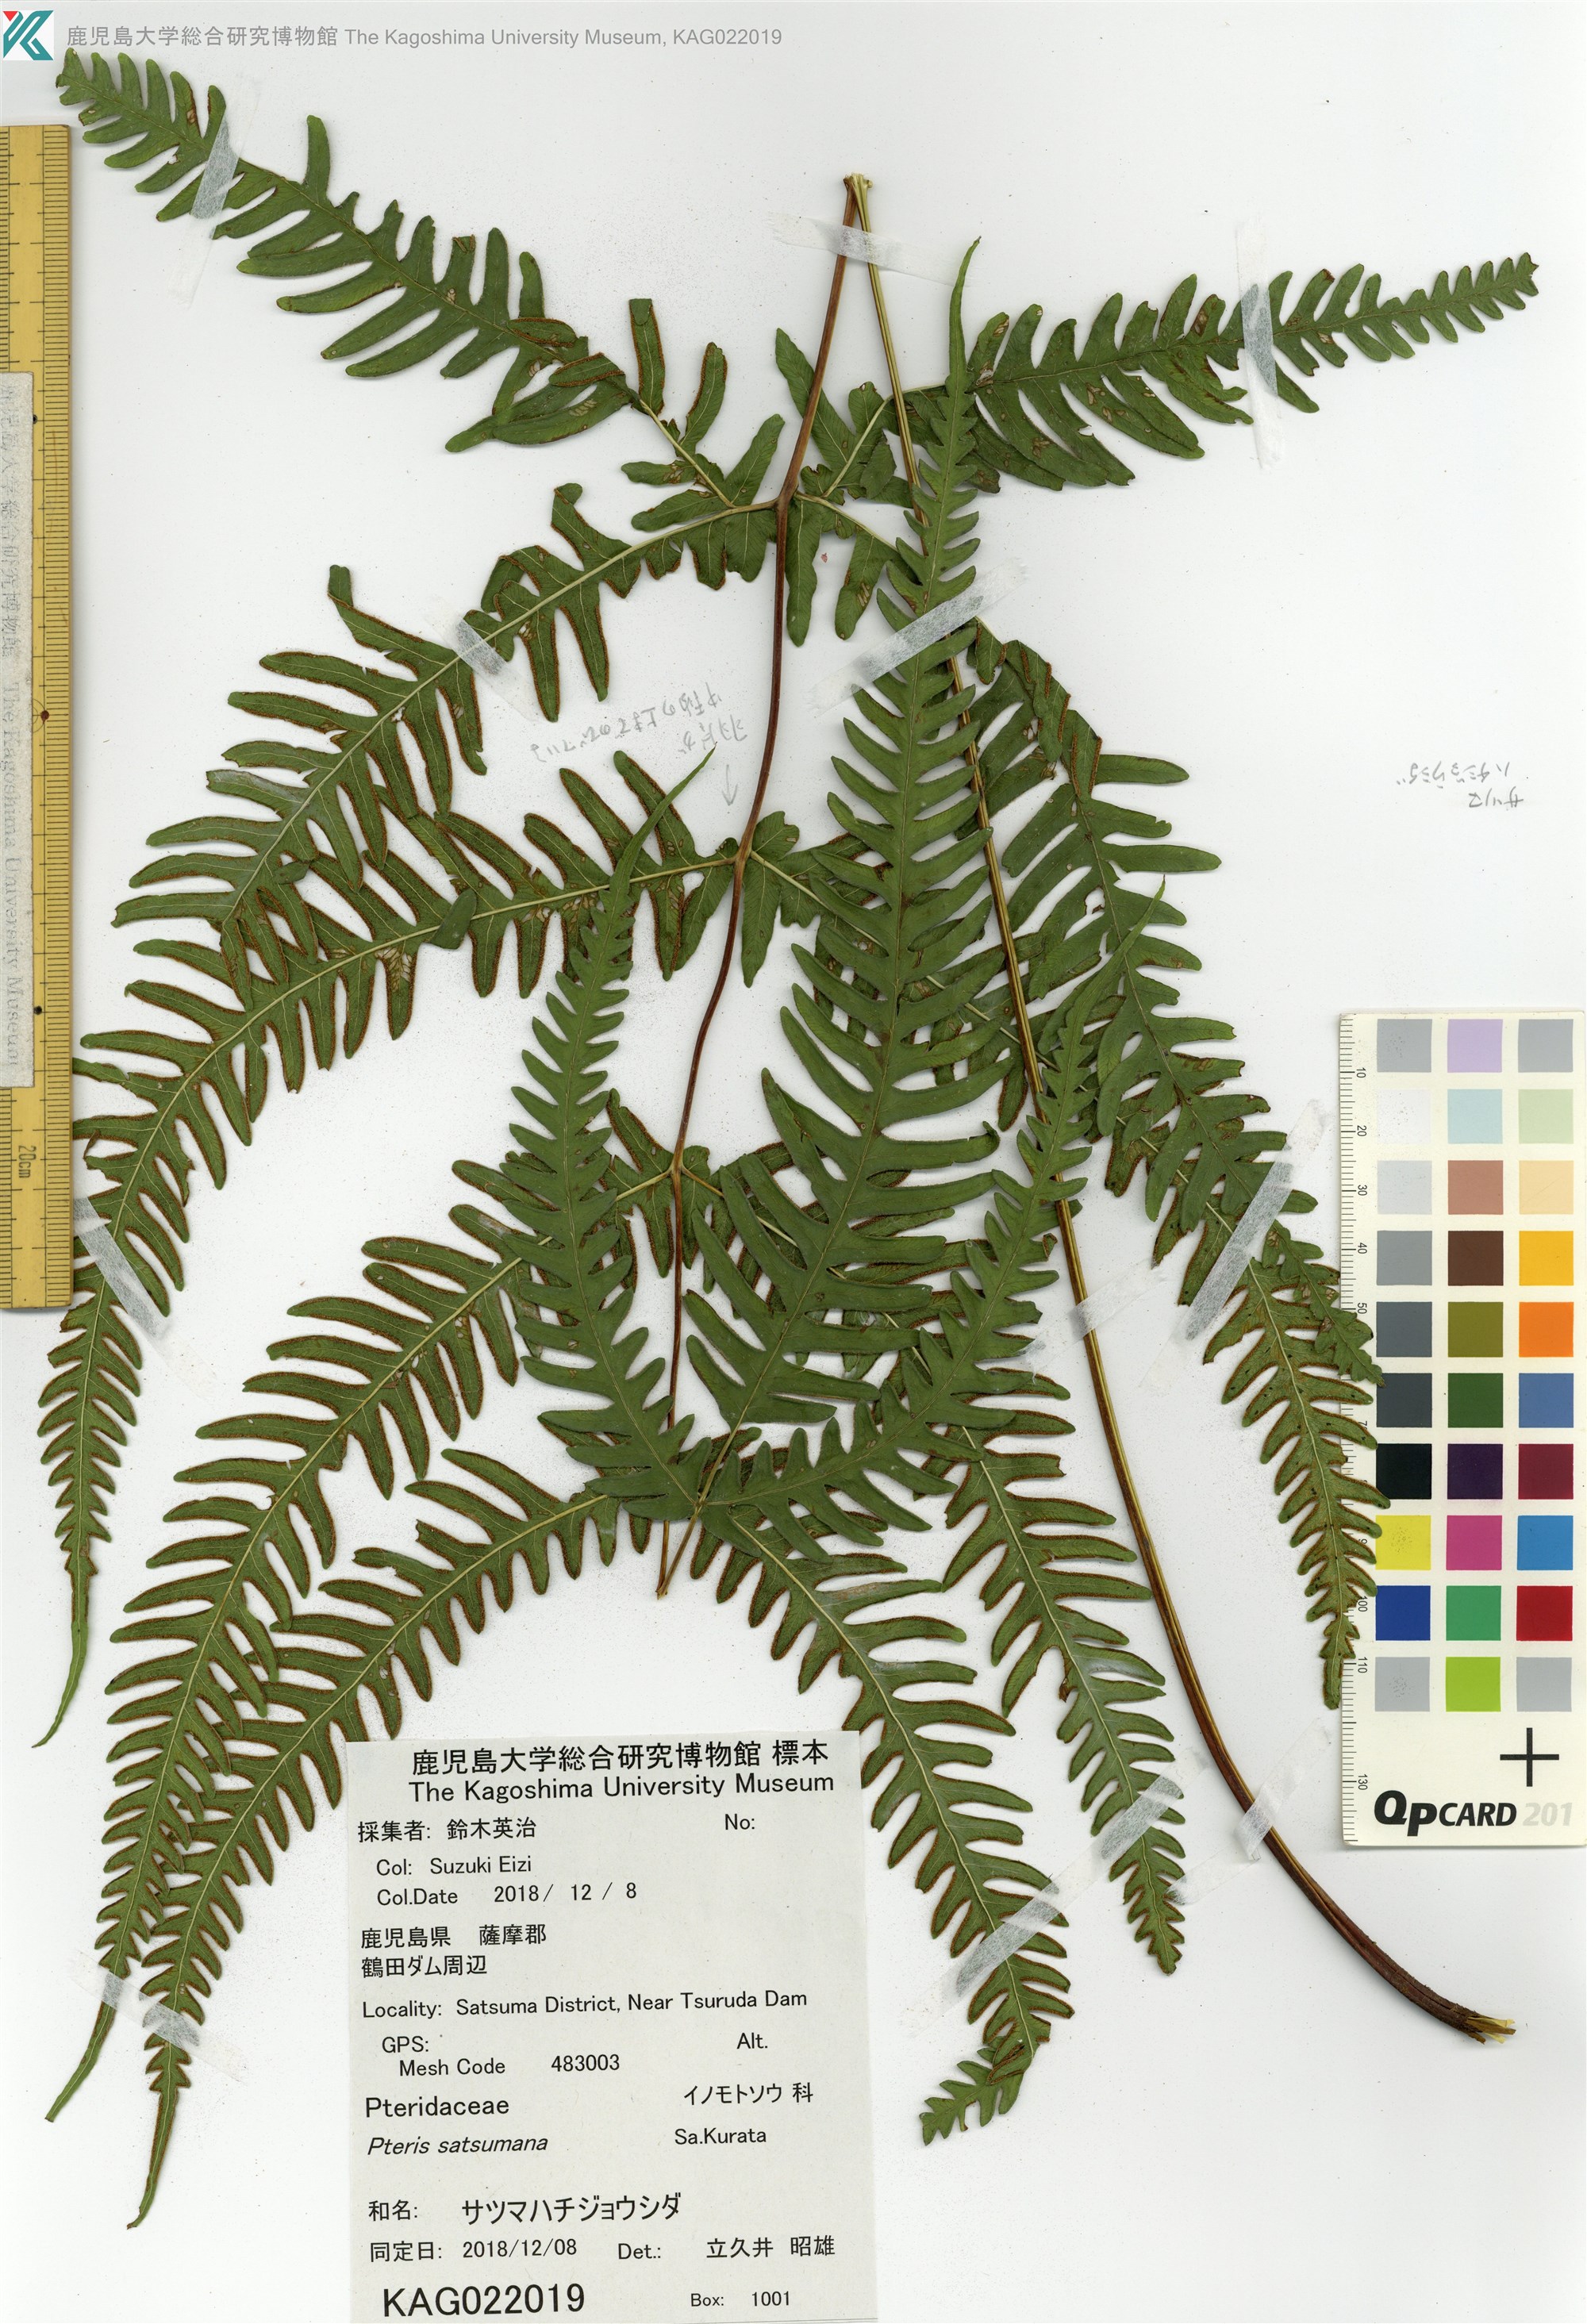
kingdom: Plantae
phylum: Tracheophyta
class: Polypodiopsida
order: Polypodiales
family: Pteridaceae
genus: Pteris
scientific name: Pteris satsumana
